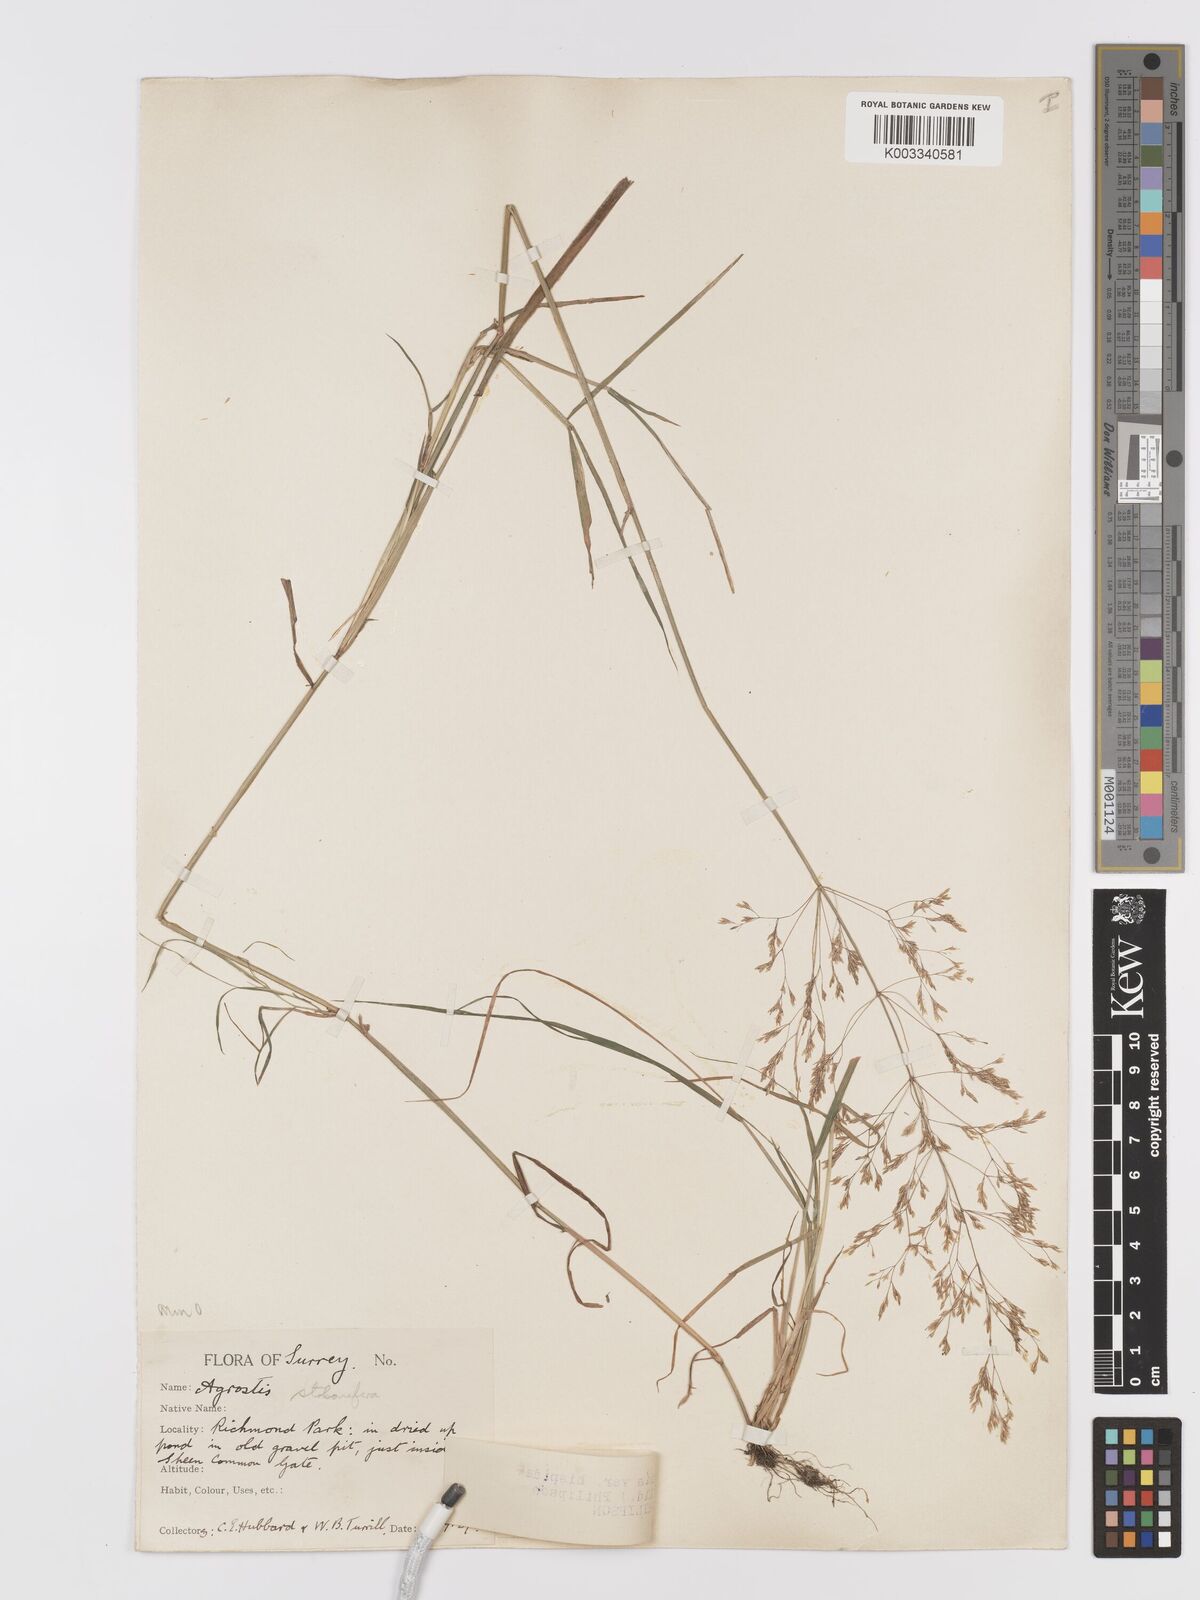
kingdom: Plantae
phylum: Tracheophyta
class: Liliopsida
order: Poales
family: Poaceae
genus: Agrostis
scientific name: Agrostis capillaris
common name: Colonial bentgrass
